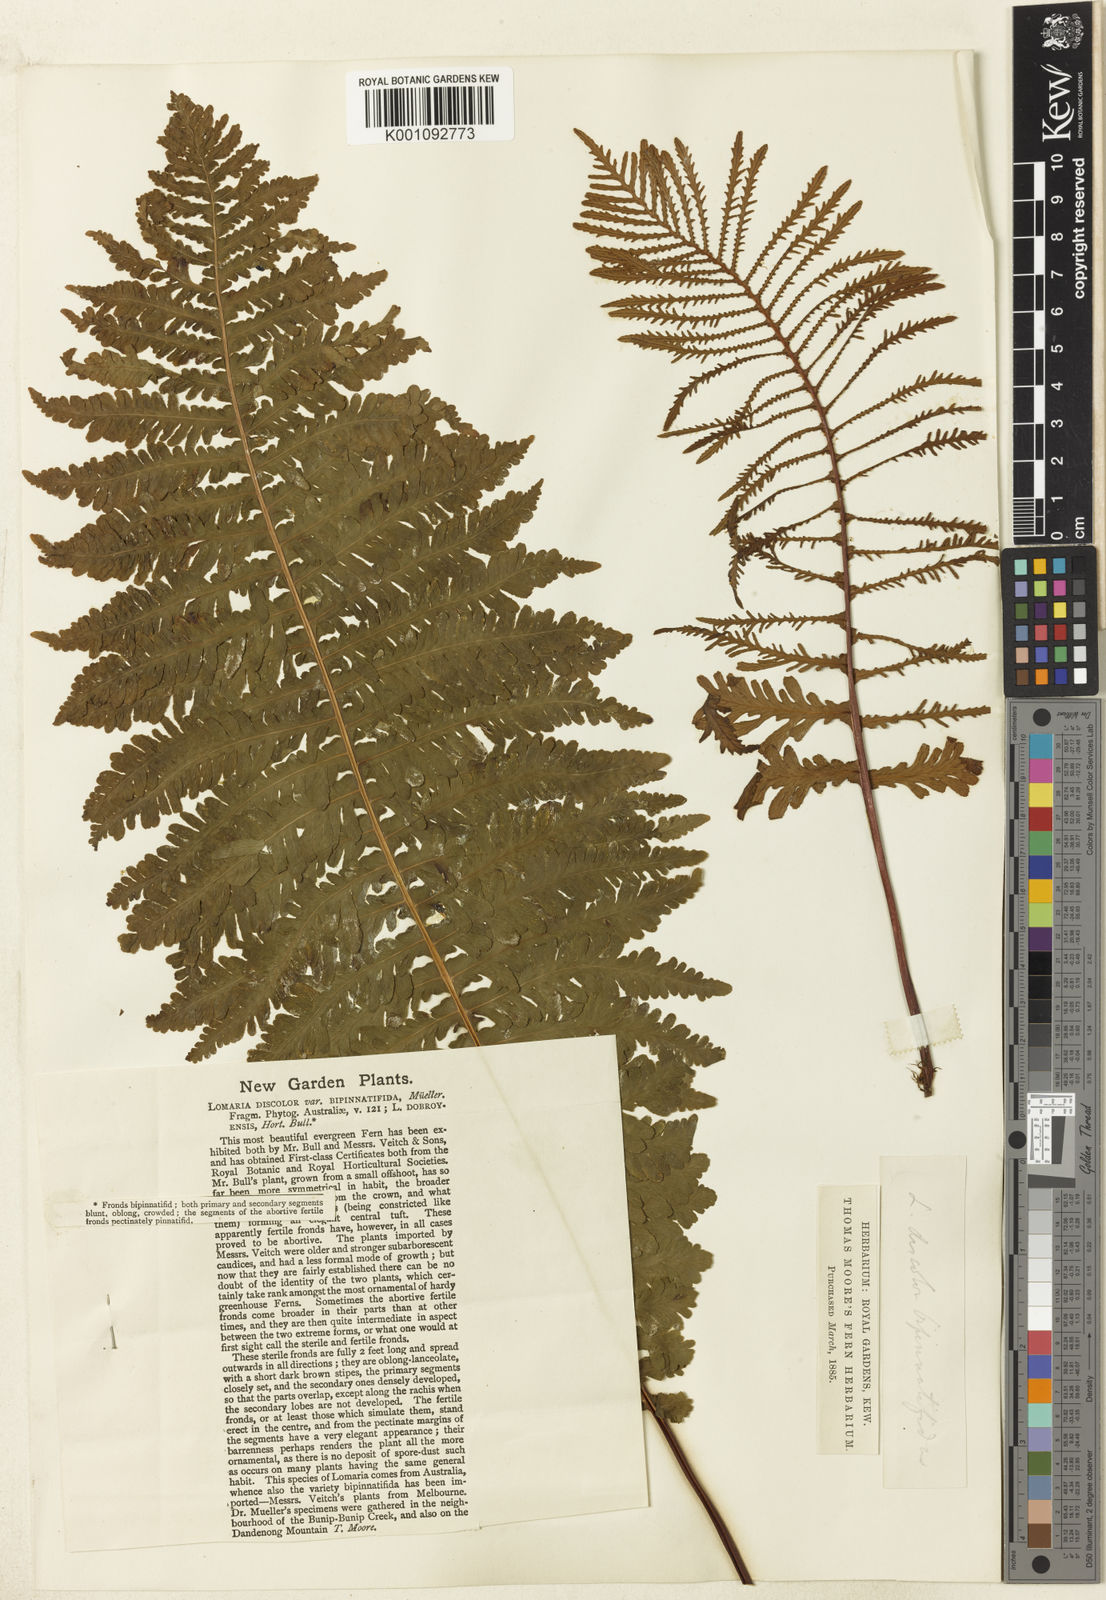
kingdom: Plantae
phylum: Tracheophyta
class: Polypodiopsida
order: Polypodiales
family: Blechnaceae
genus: Lomaria
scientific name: Lomaria nuda
